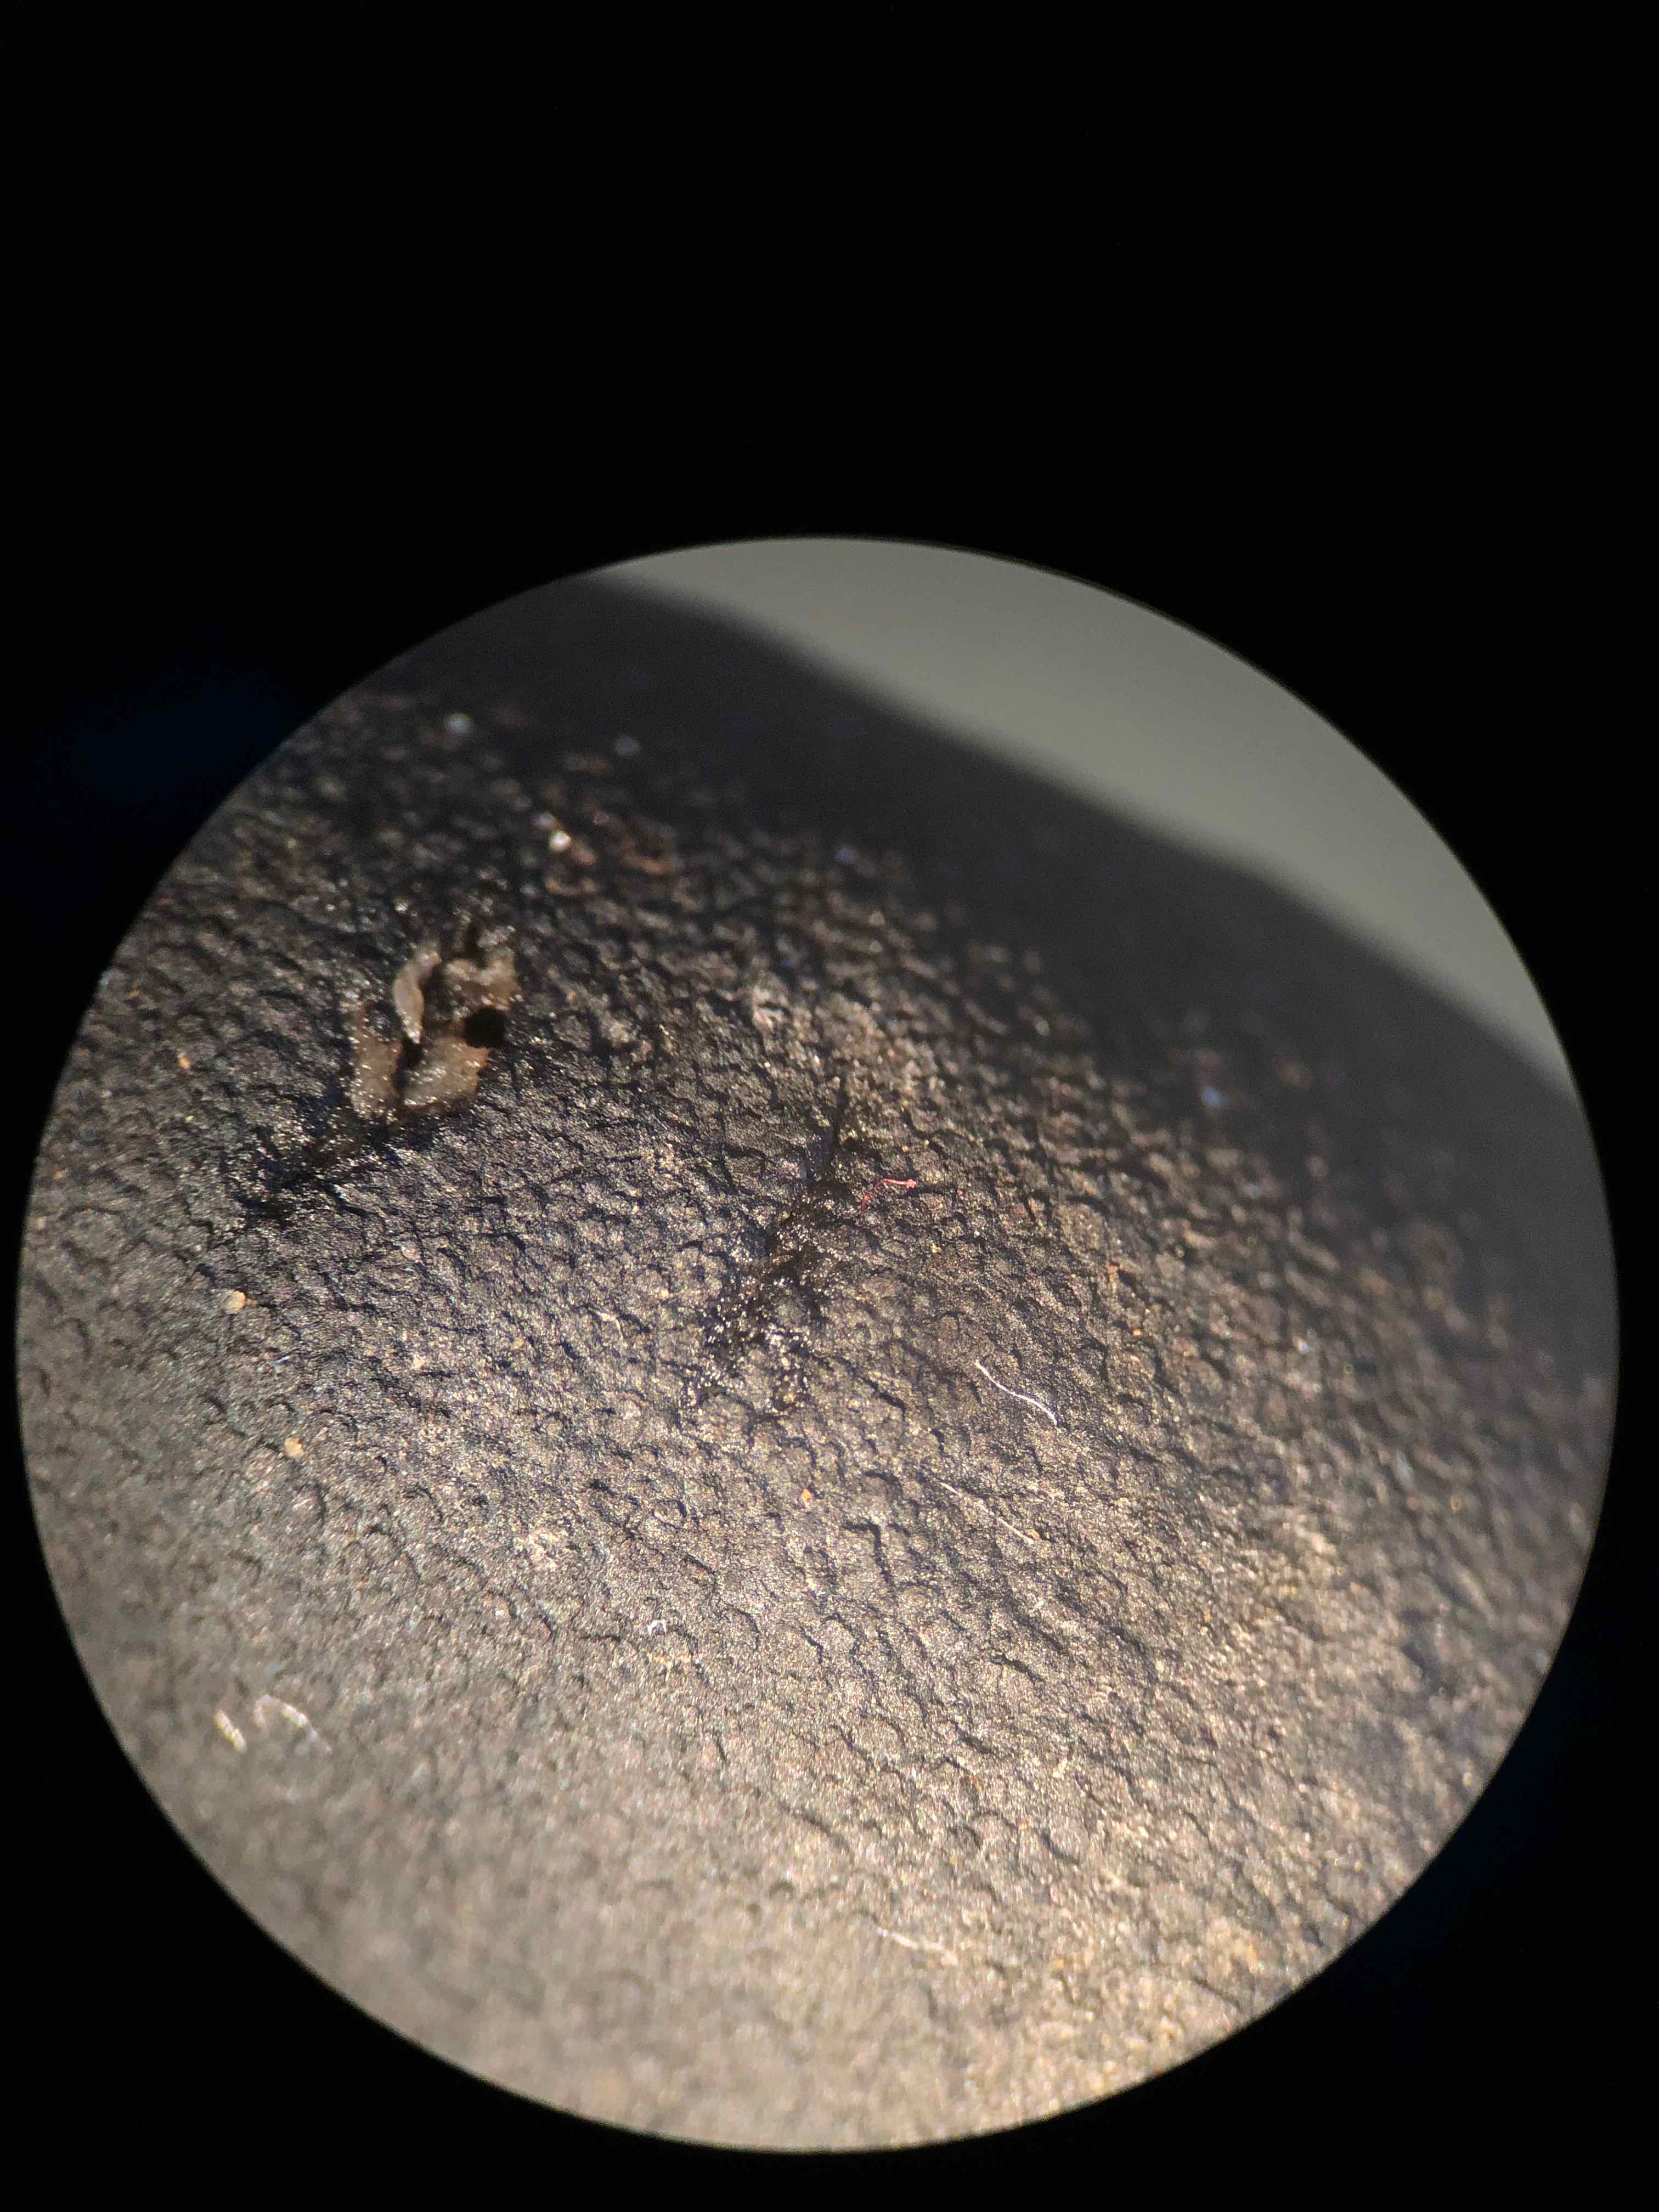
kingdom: Fungi
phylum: Ascomycota
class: Sordariomycetes
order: Xylariales
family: Xylariaceae
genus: Xylaria
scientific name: Xylaria longipes
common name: slank stødsvamp
